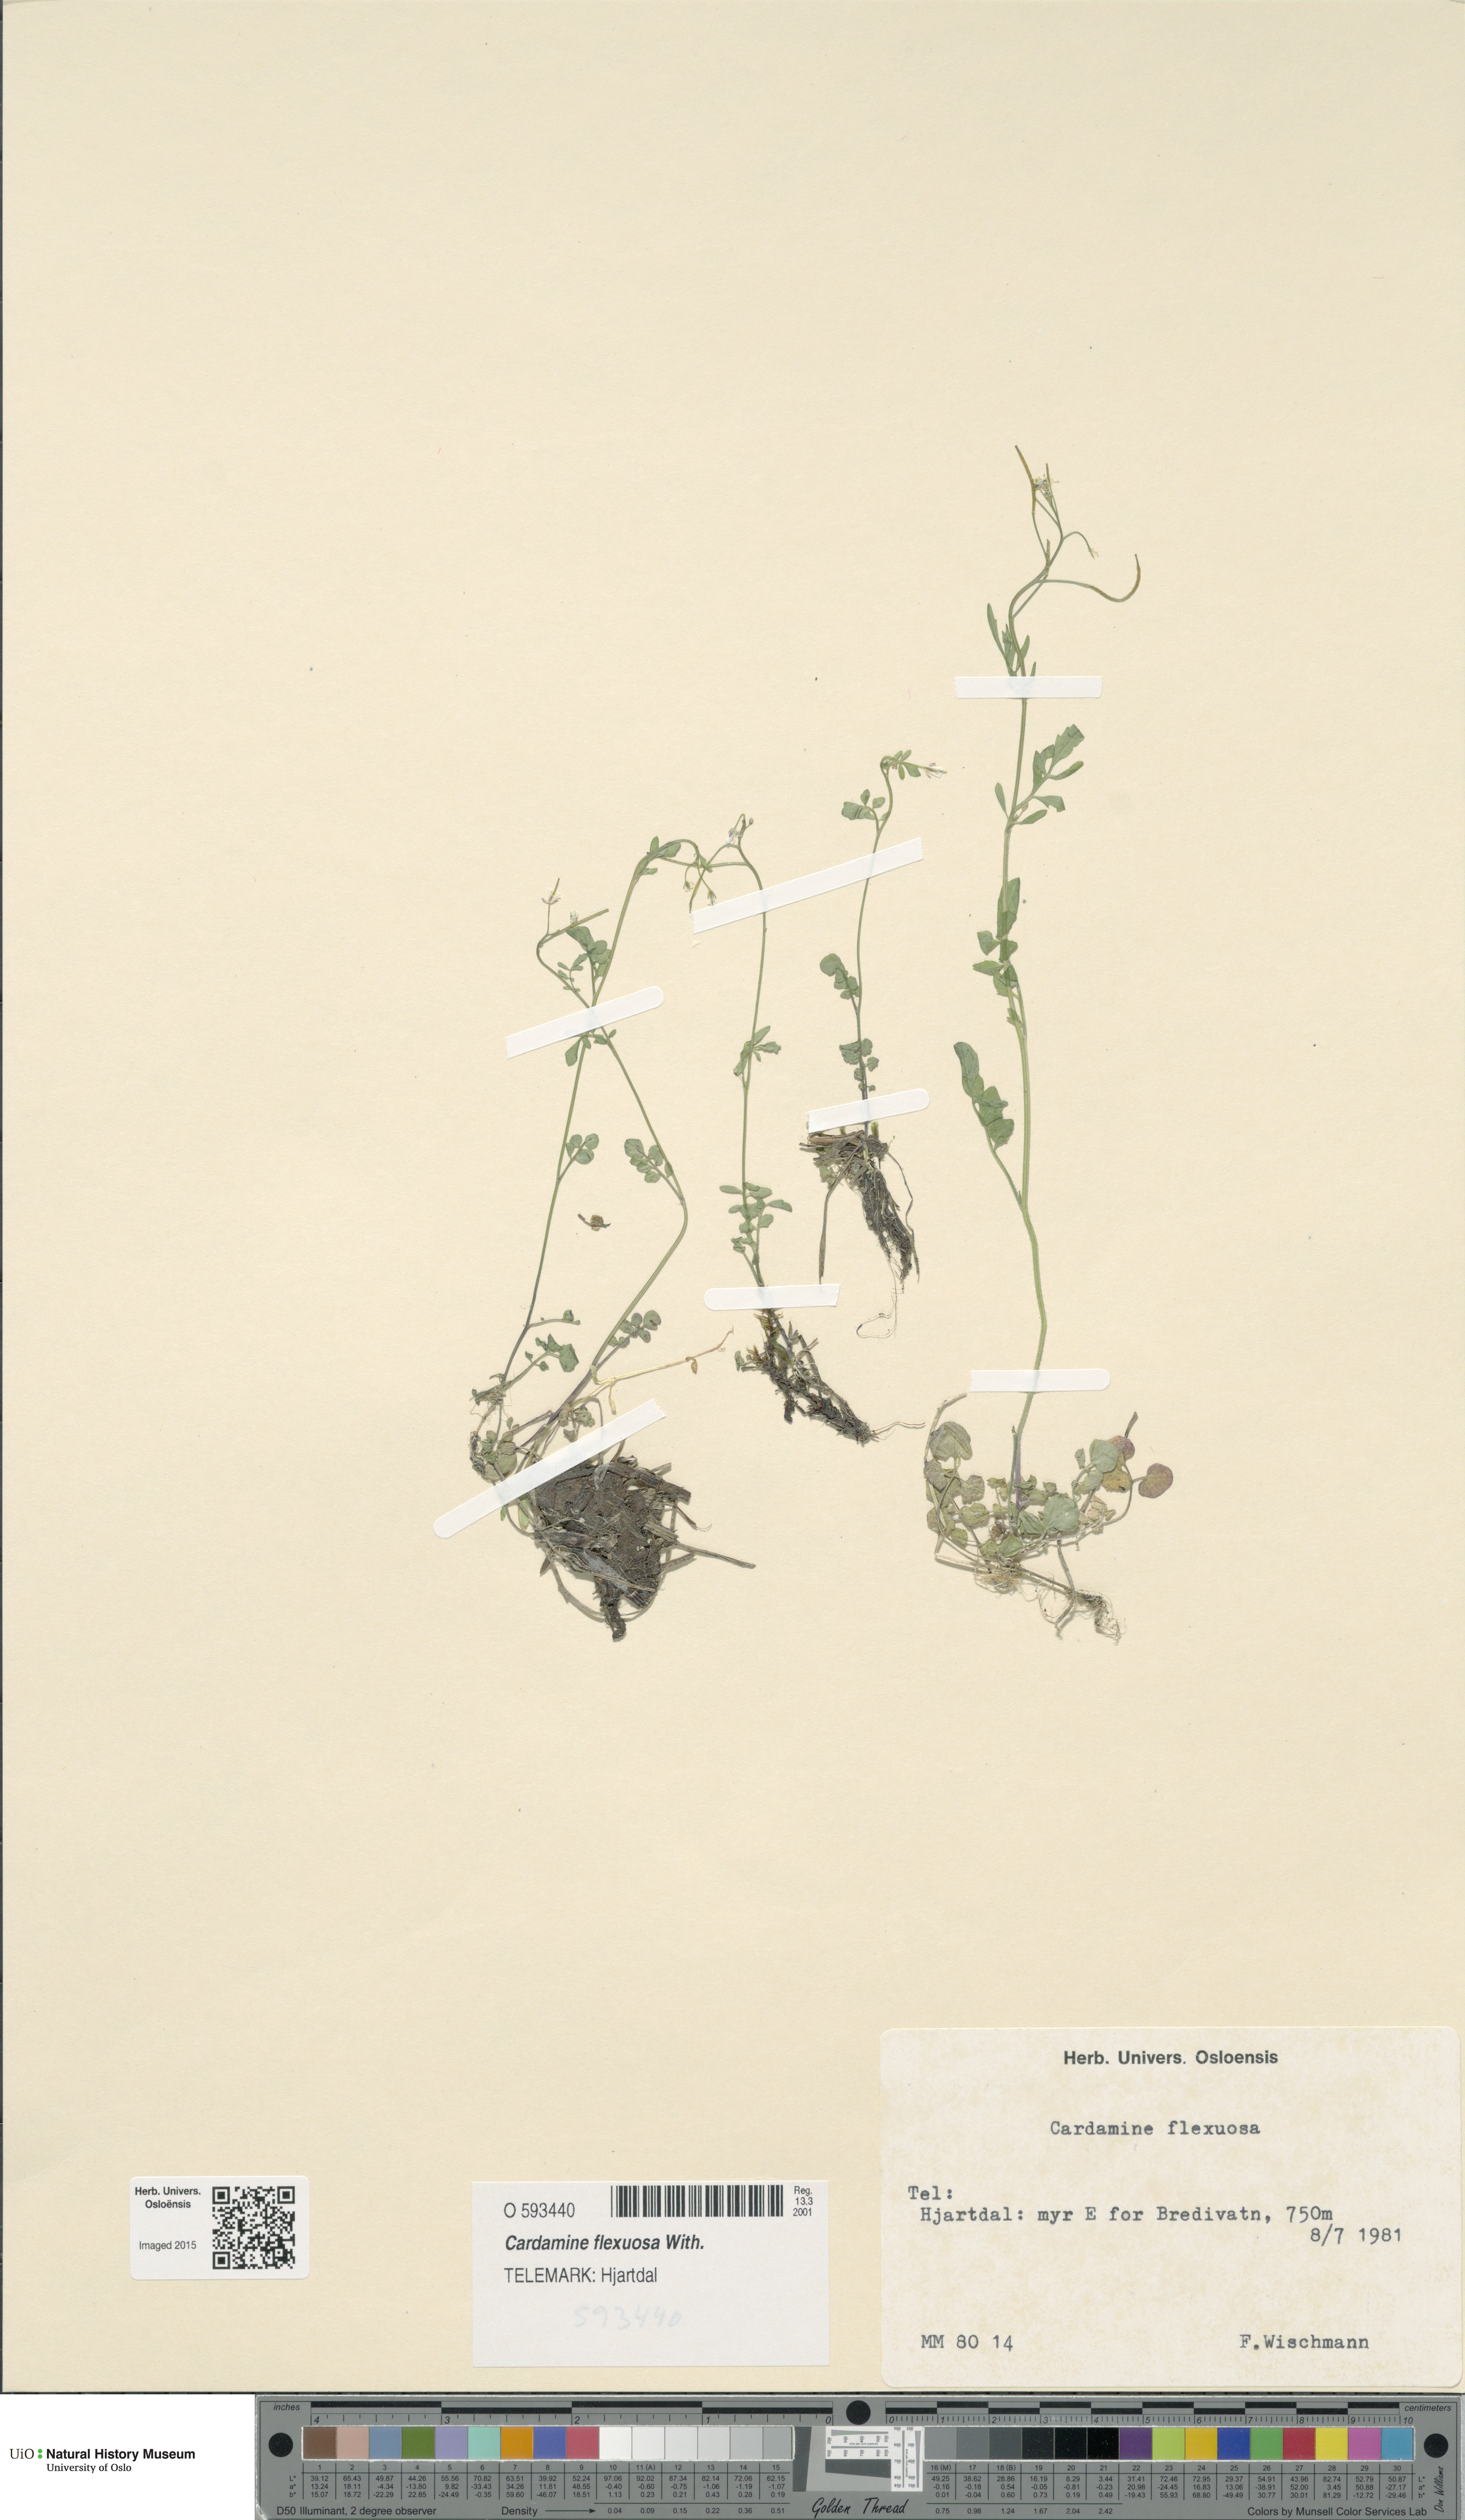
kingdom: Plantae
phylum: Tracheophyta
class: Magnoliopsida
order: Brassicales
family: Brassicaceae
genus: Cardamine
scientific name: Cardamine flexuosa
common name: Woodland bittercress
